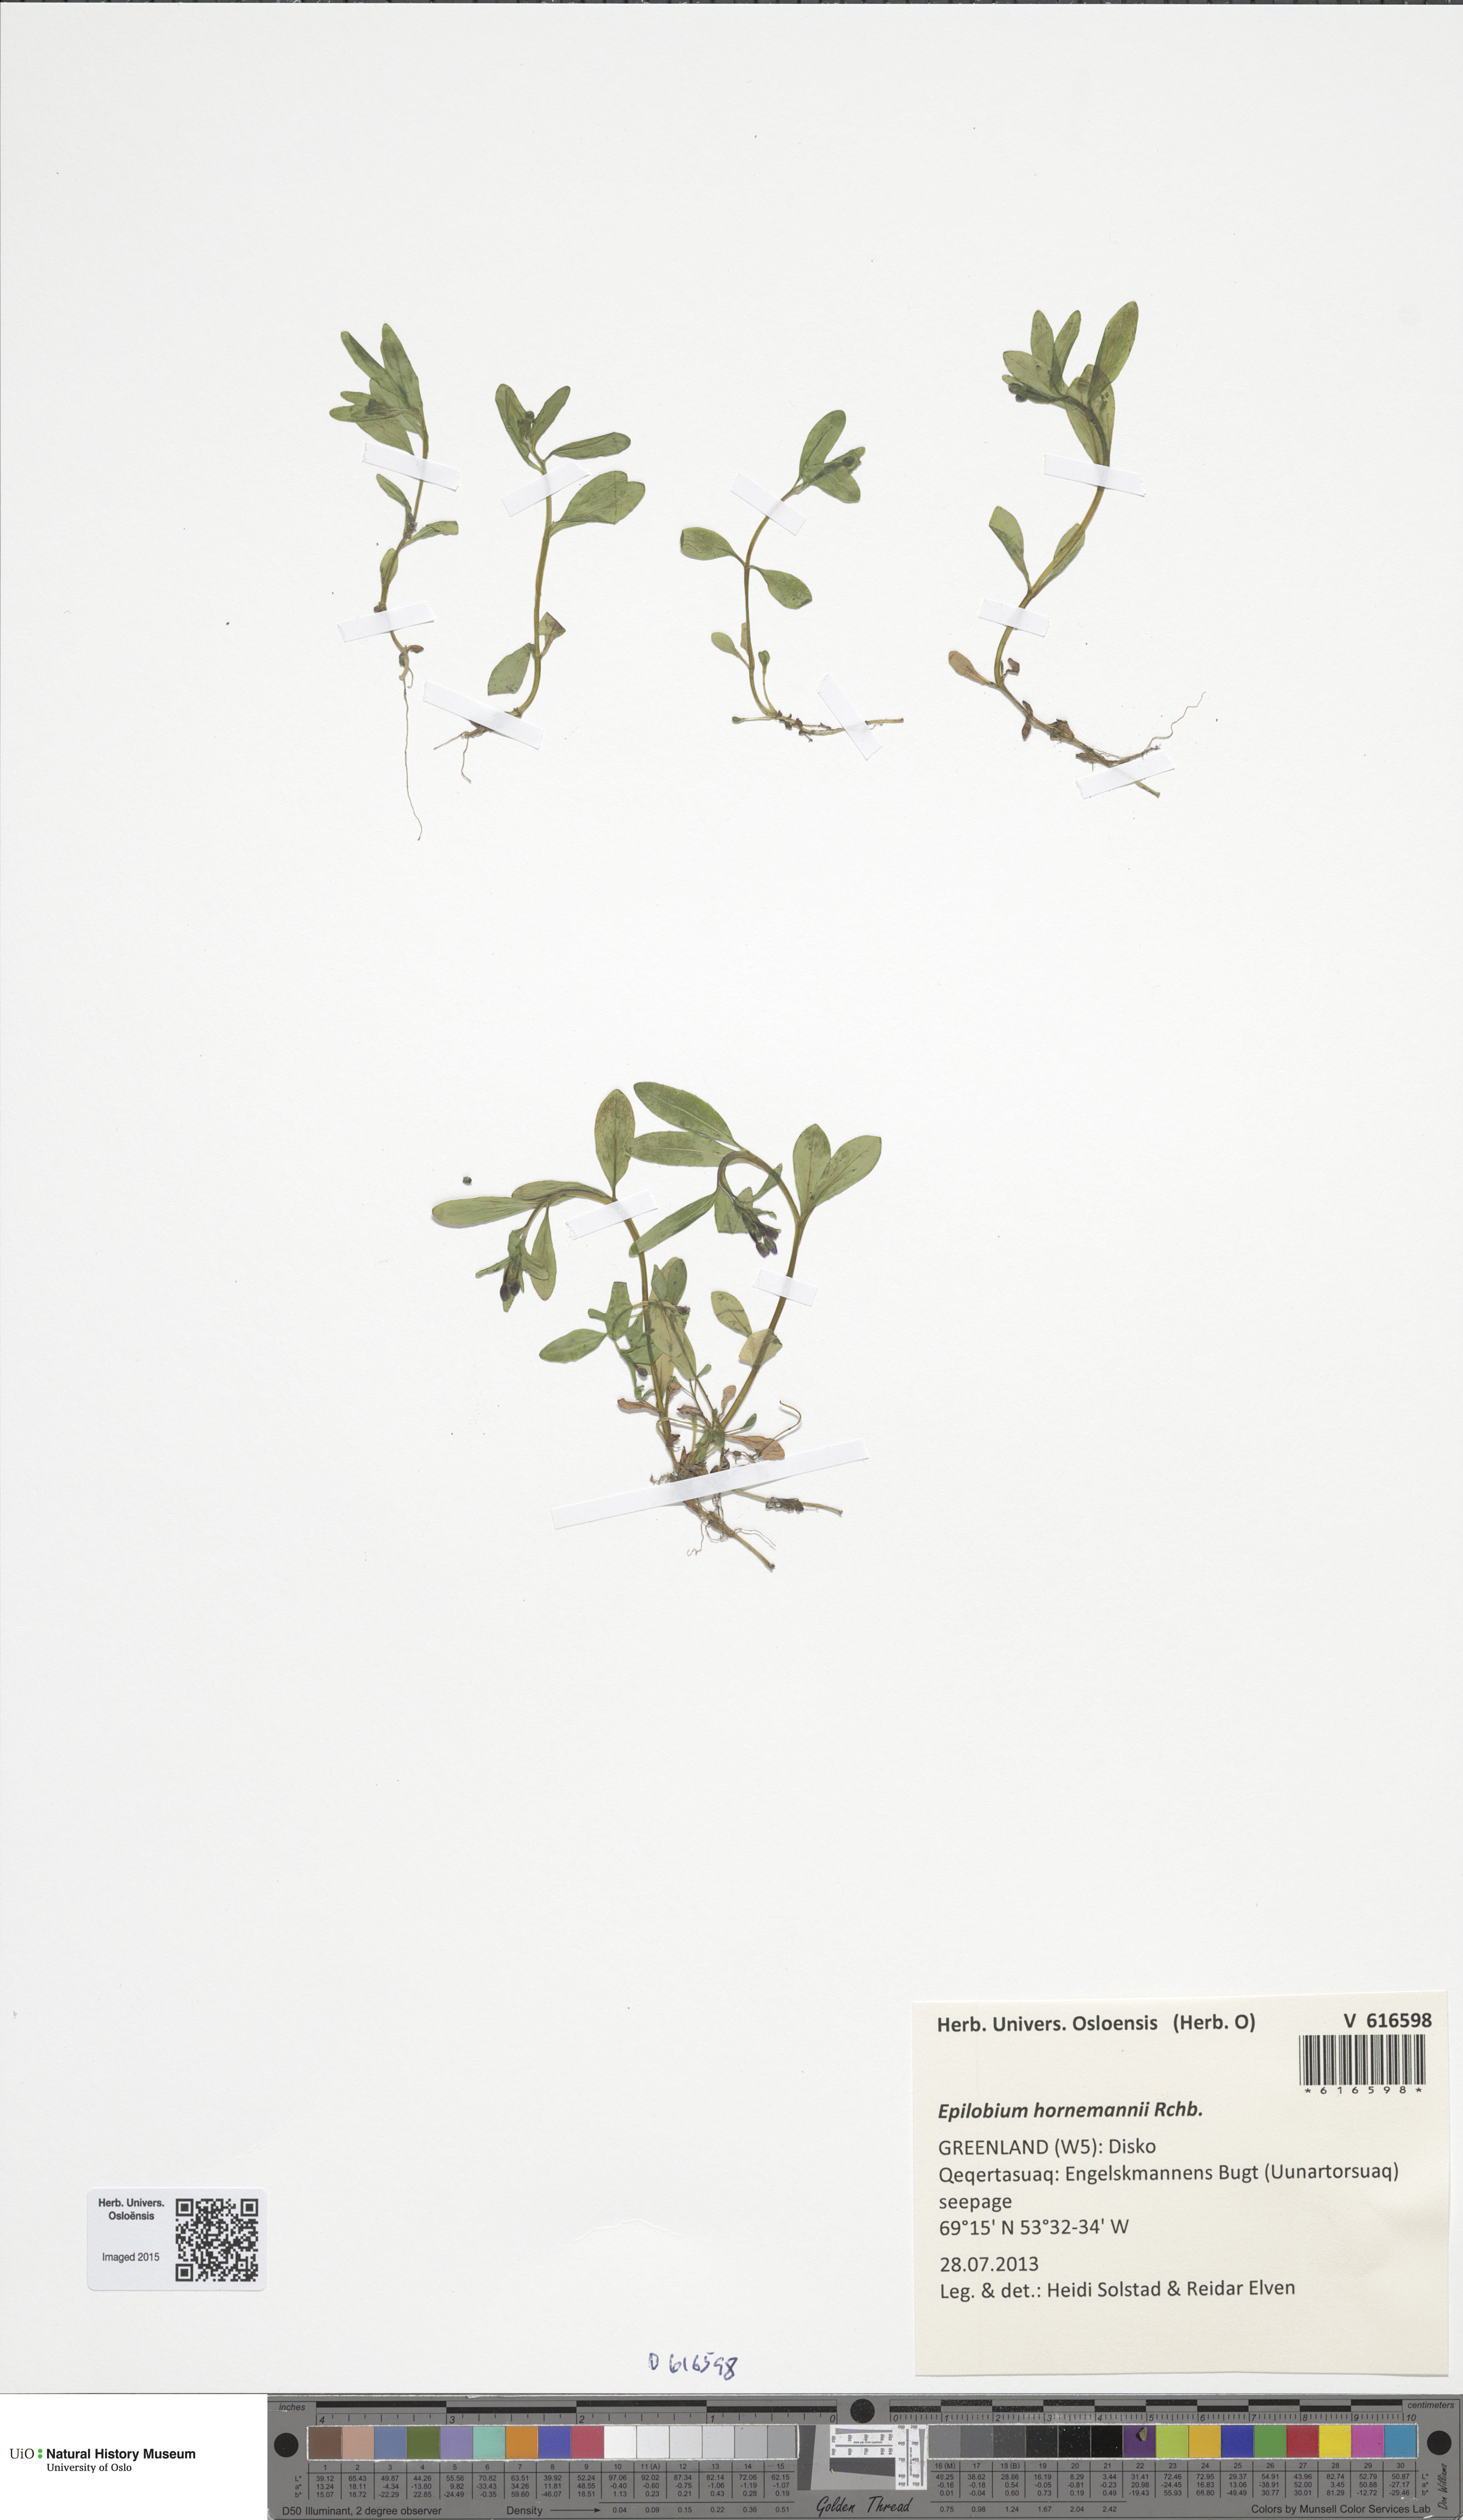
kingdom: Plantae
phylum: Tracheophyta
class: Magnoliopsida
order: Myrtales
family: Onagraceae
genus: Epilobium
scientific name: Epilobium hornemannii
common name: Hornemann's willowherb
